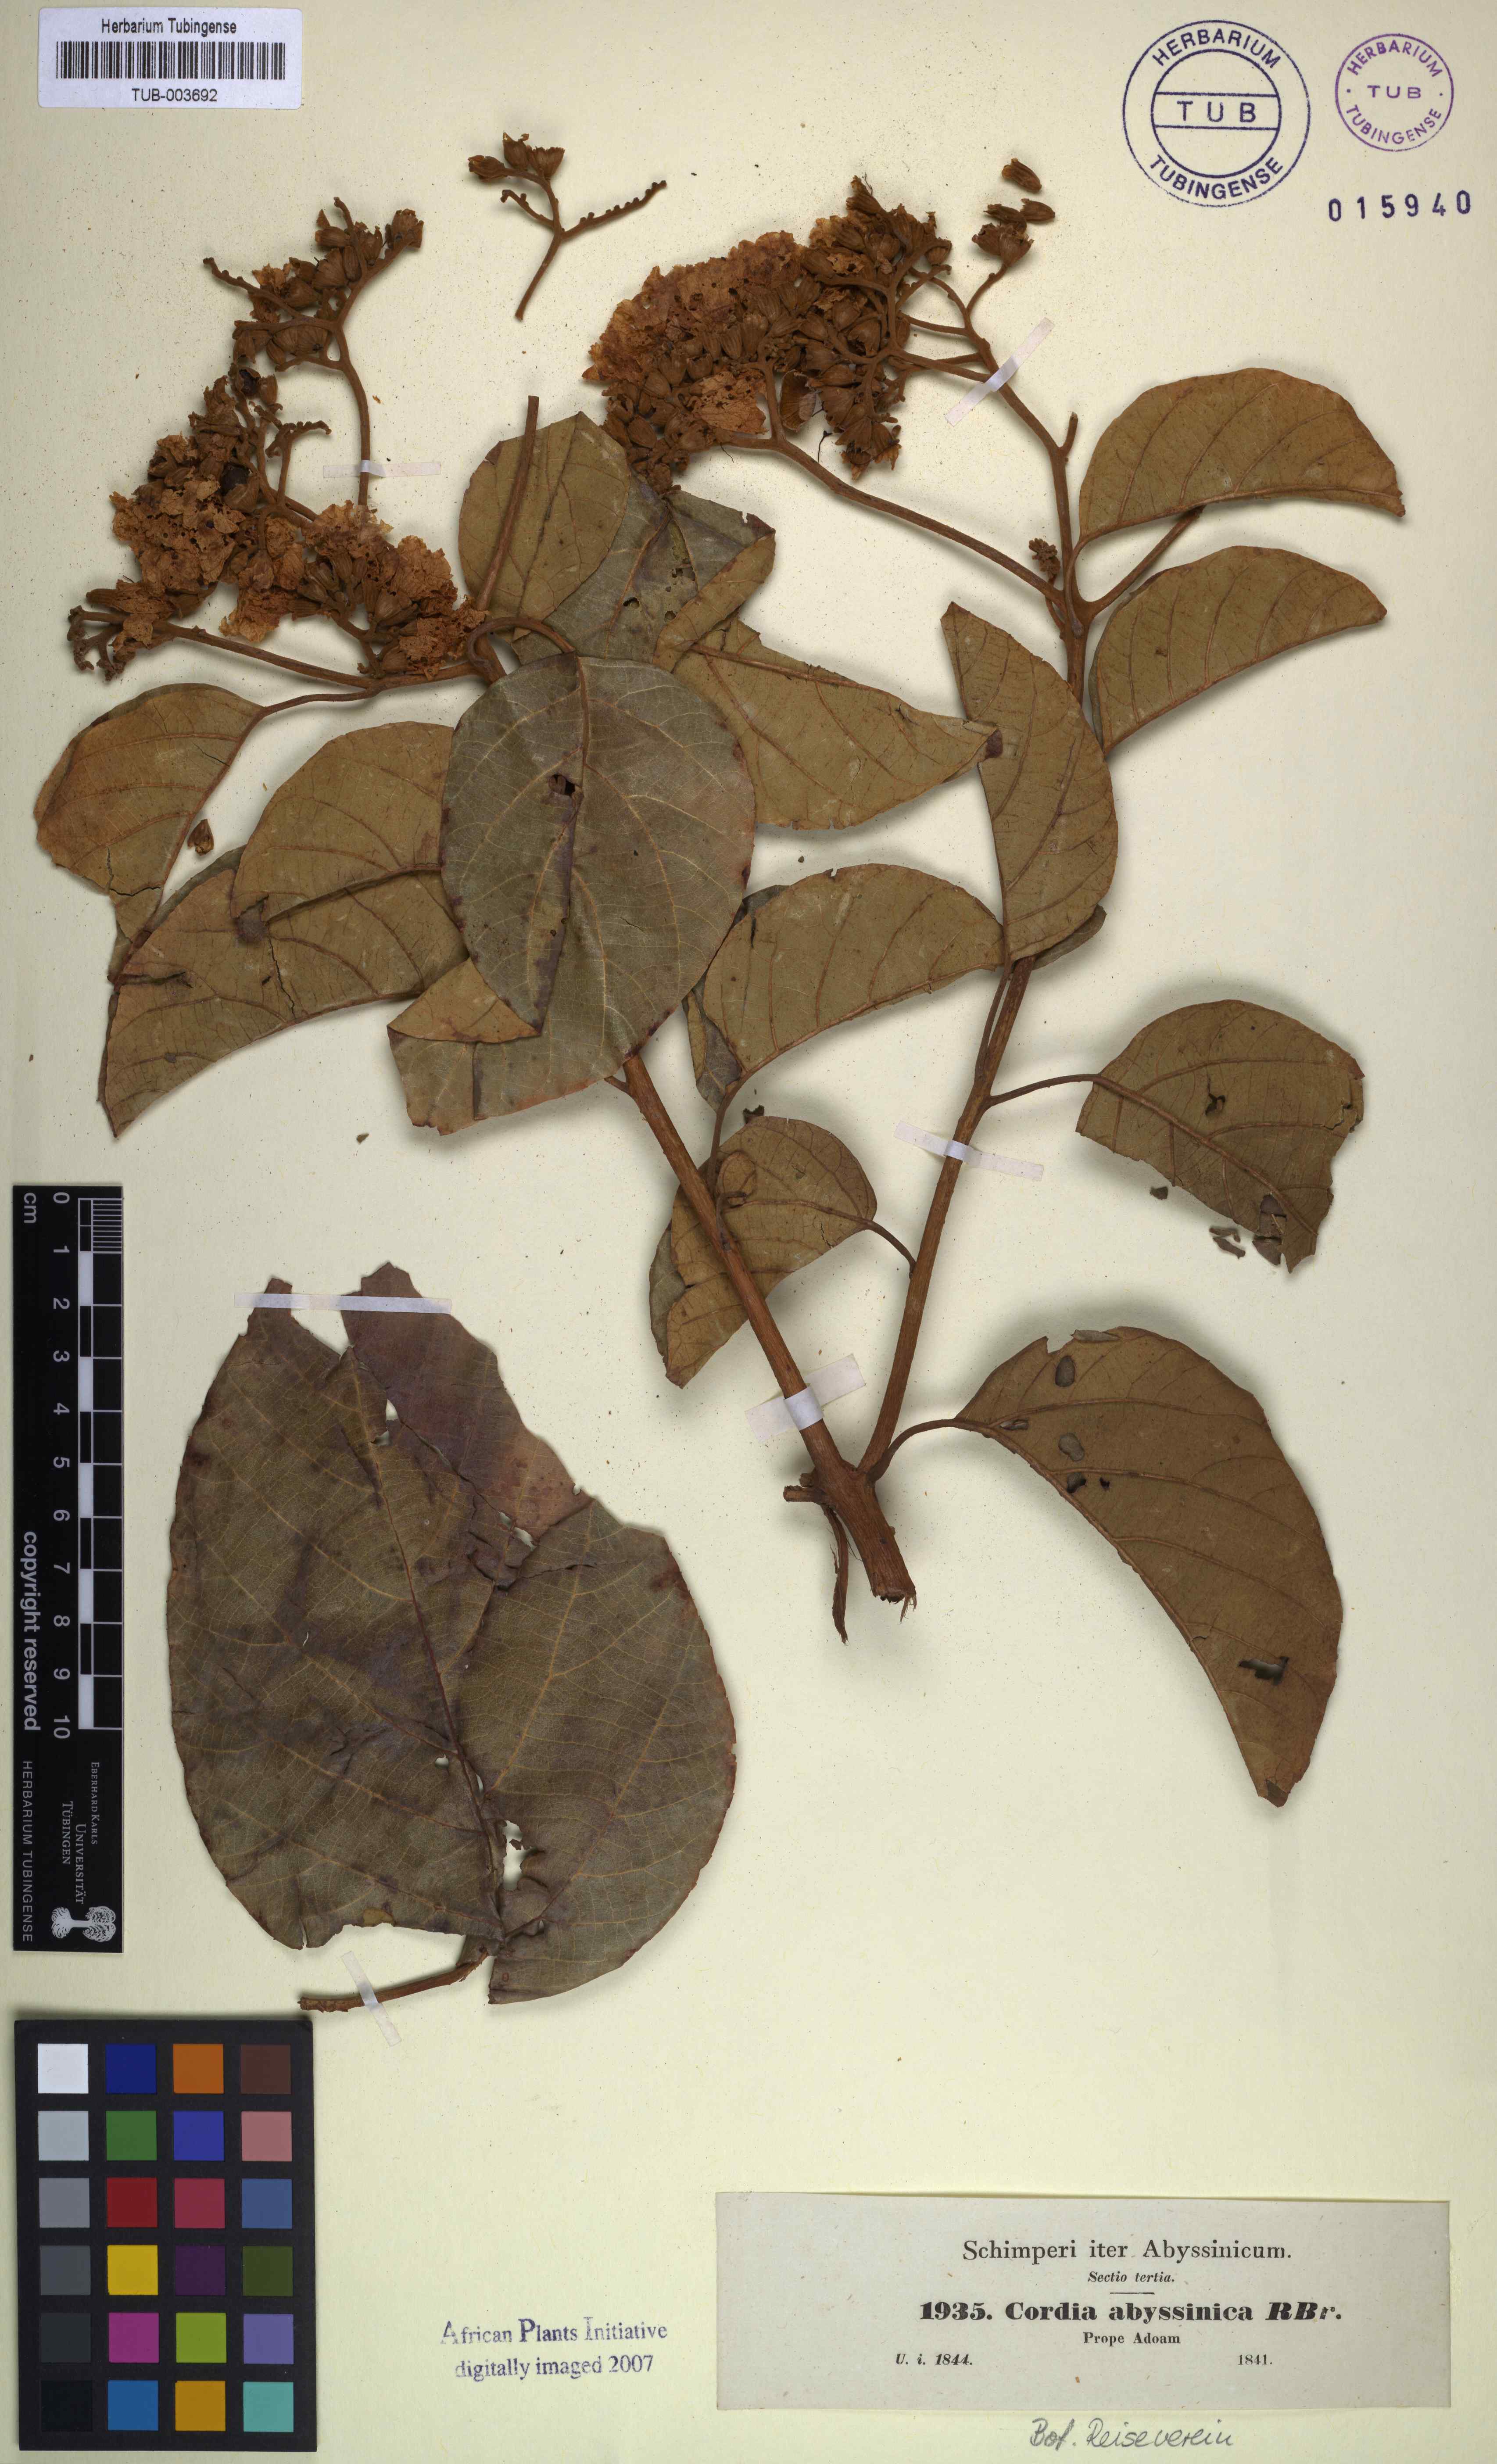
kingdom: Plantae
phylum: Tracheophyta
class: Magnoliopsida
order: Boraginales
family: Cordiaceae
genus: Cordia
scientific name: Cordia crenata
